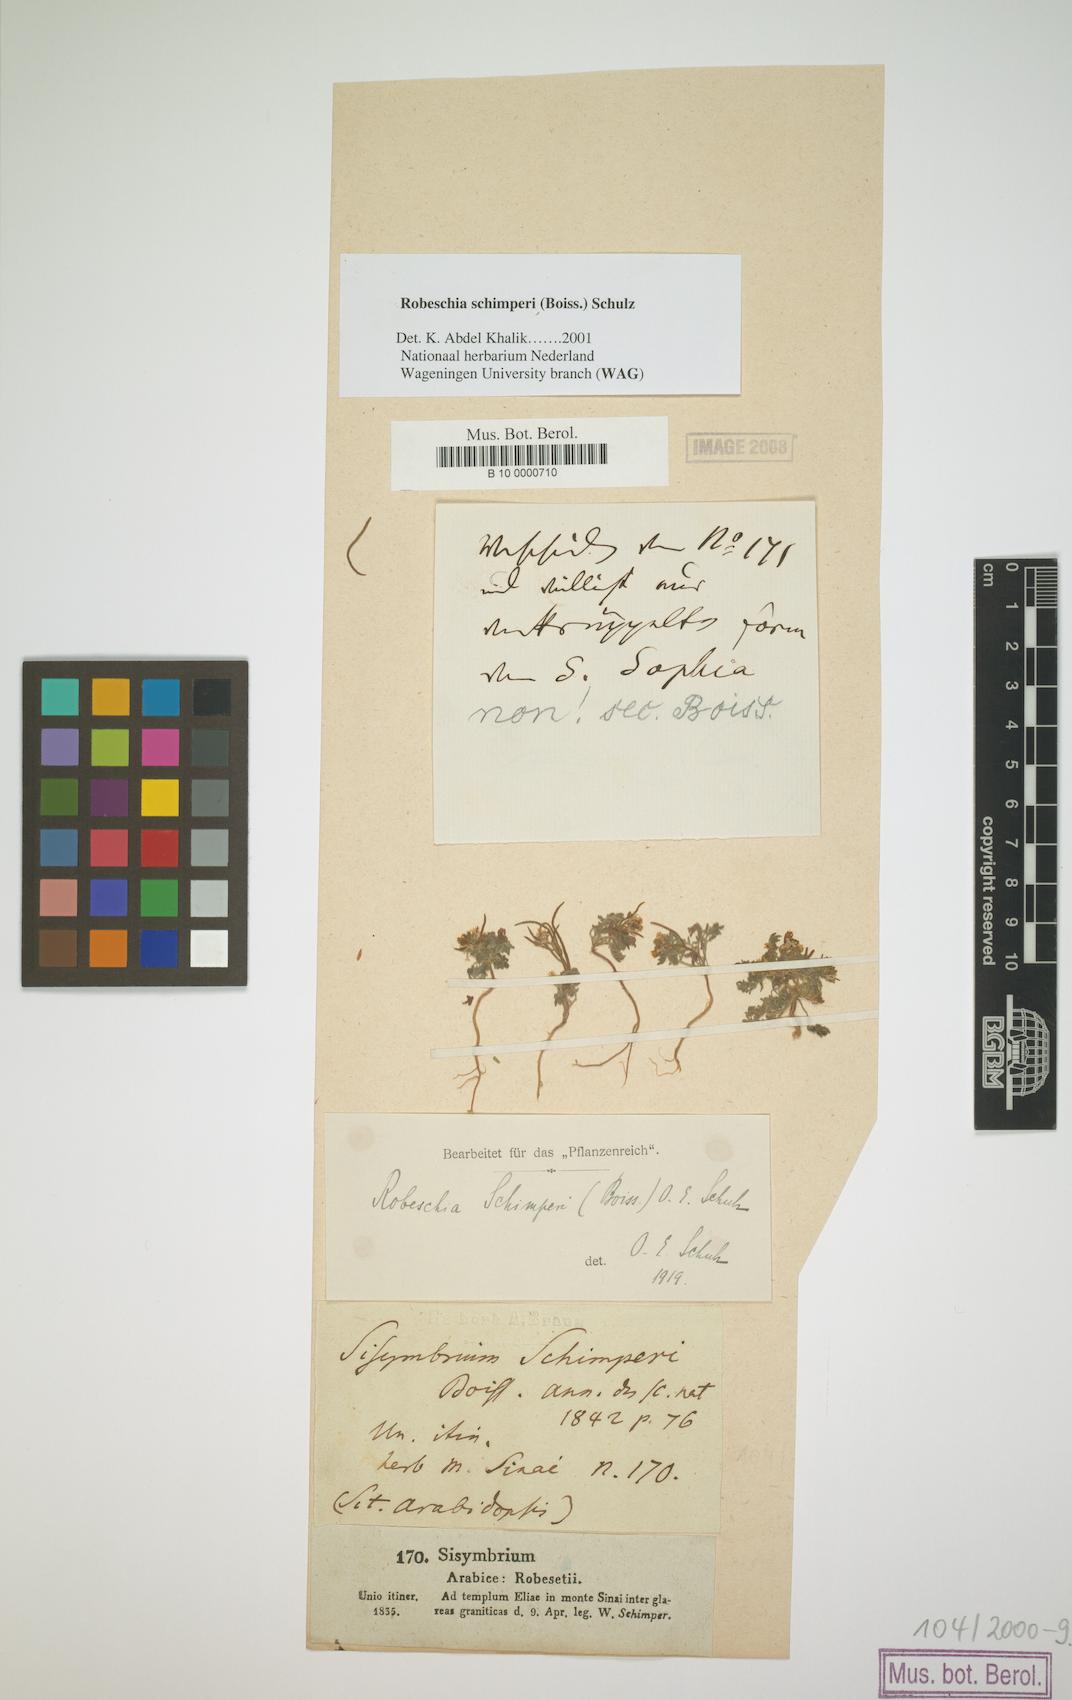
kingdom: Plantae
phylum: Tracheophyta
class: Magnoliopsida
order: Brassicales
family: Brassicaceae
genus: Robeschia
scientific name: Robeschia schimperi
